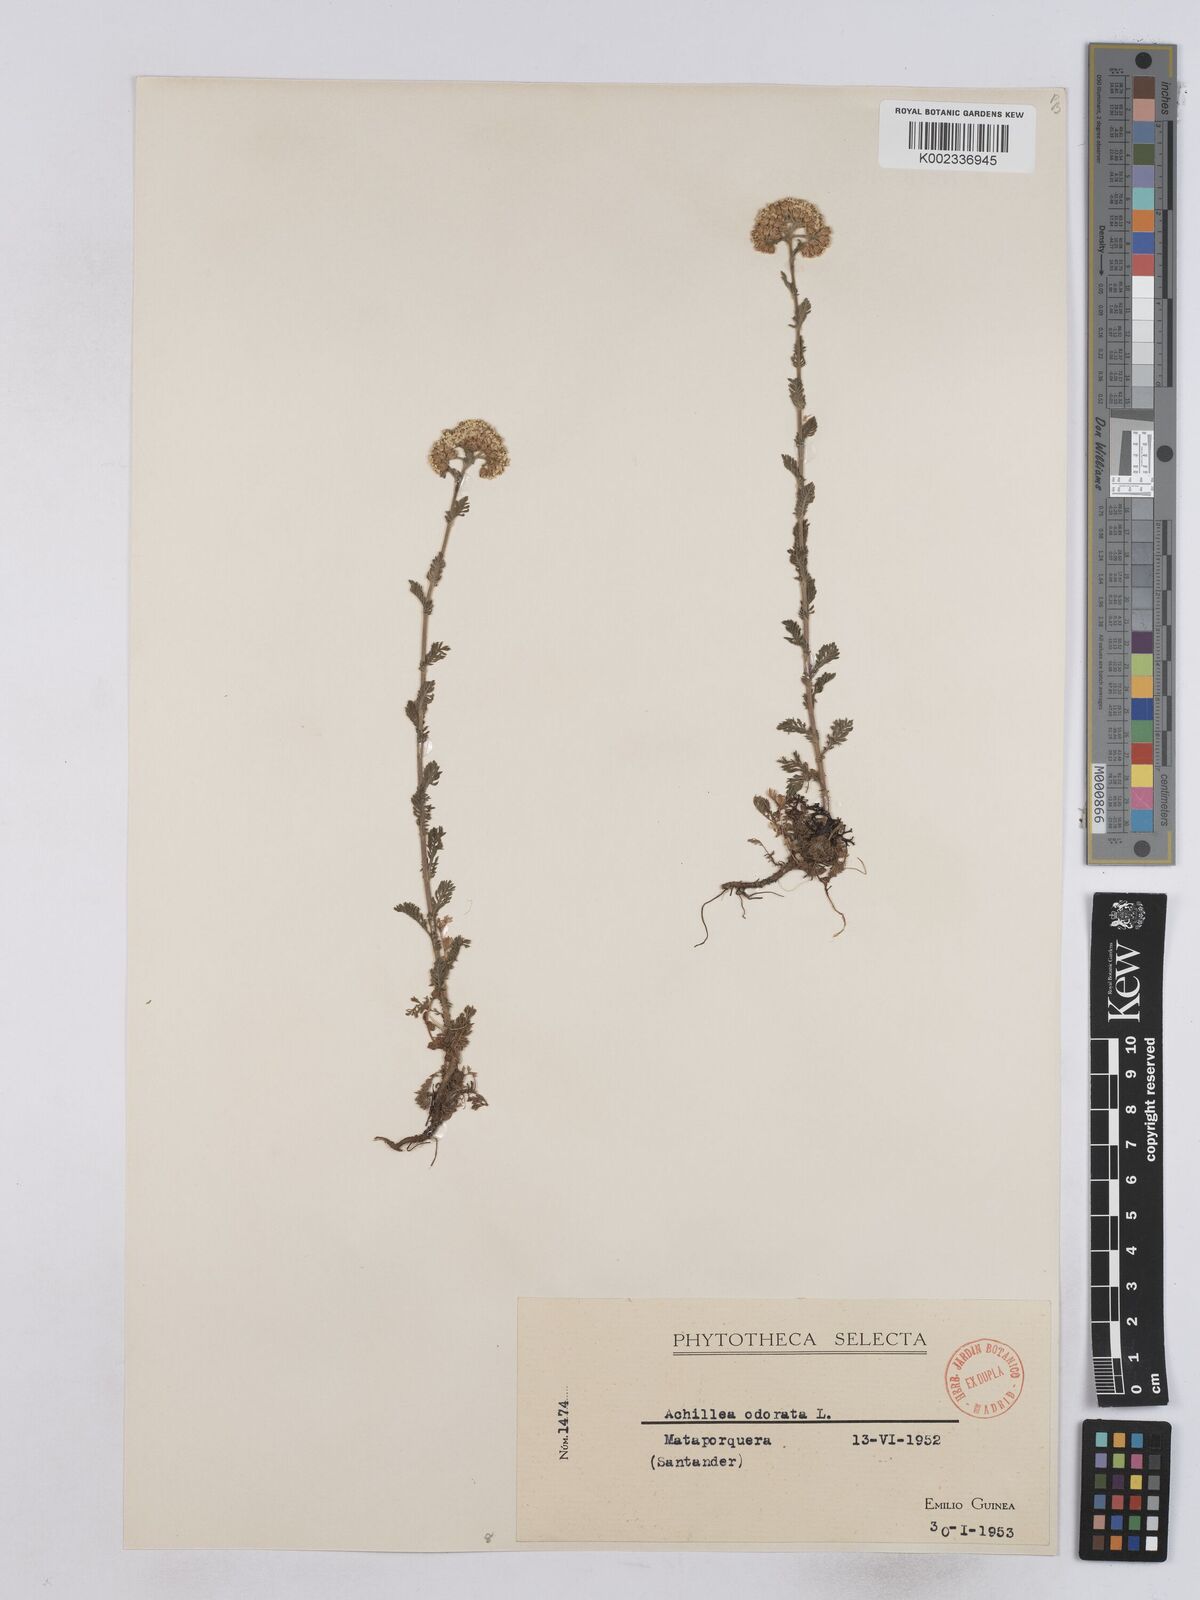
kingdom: Plantae
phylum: Tracheophyta
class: Magnoliopsida
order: Asterales
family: Asteraceae
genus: Achillea
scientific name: Achillea odorata
